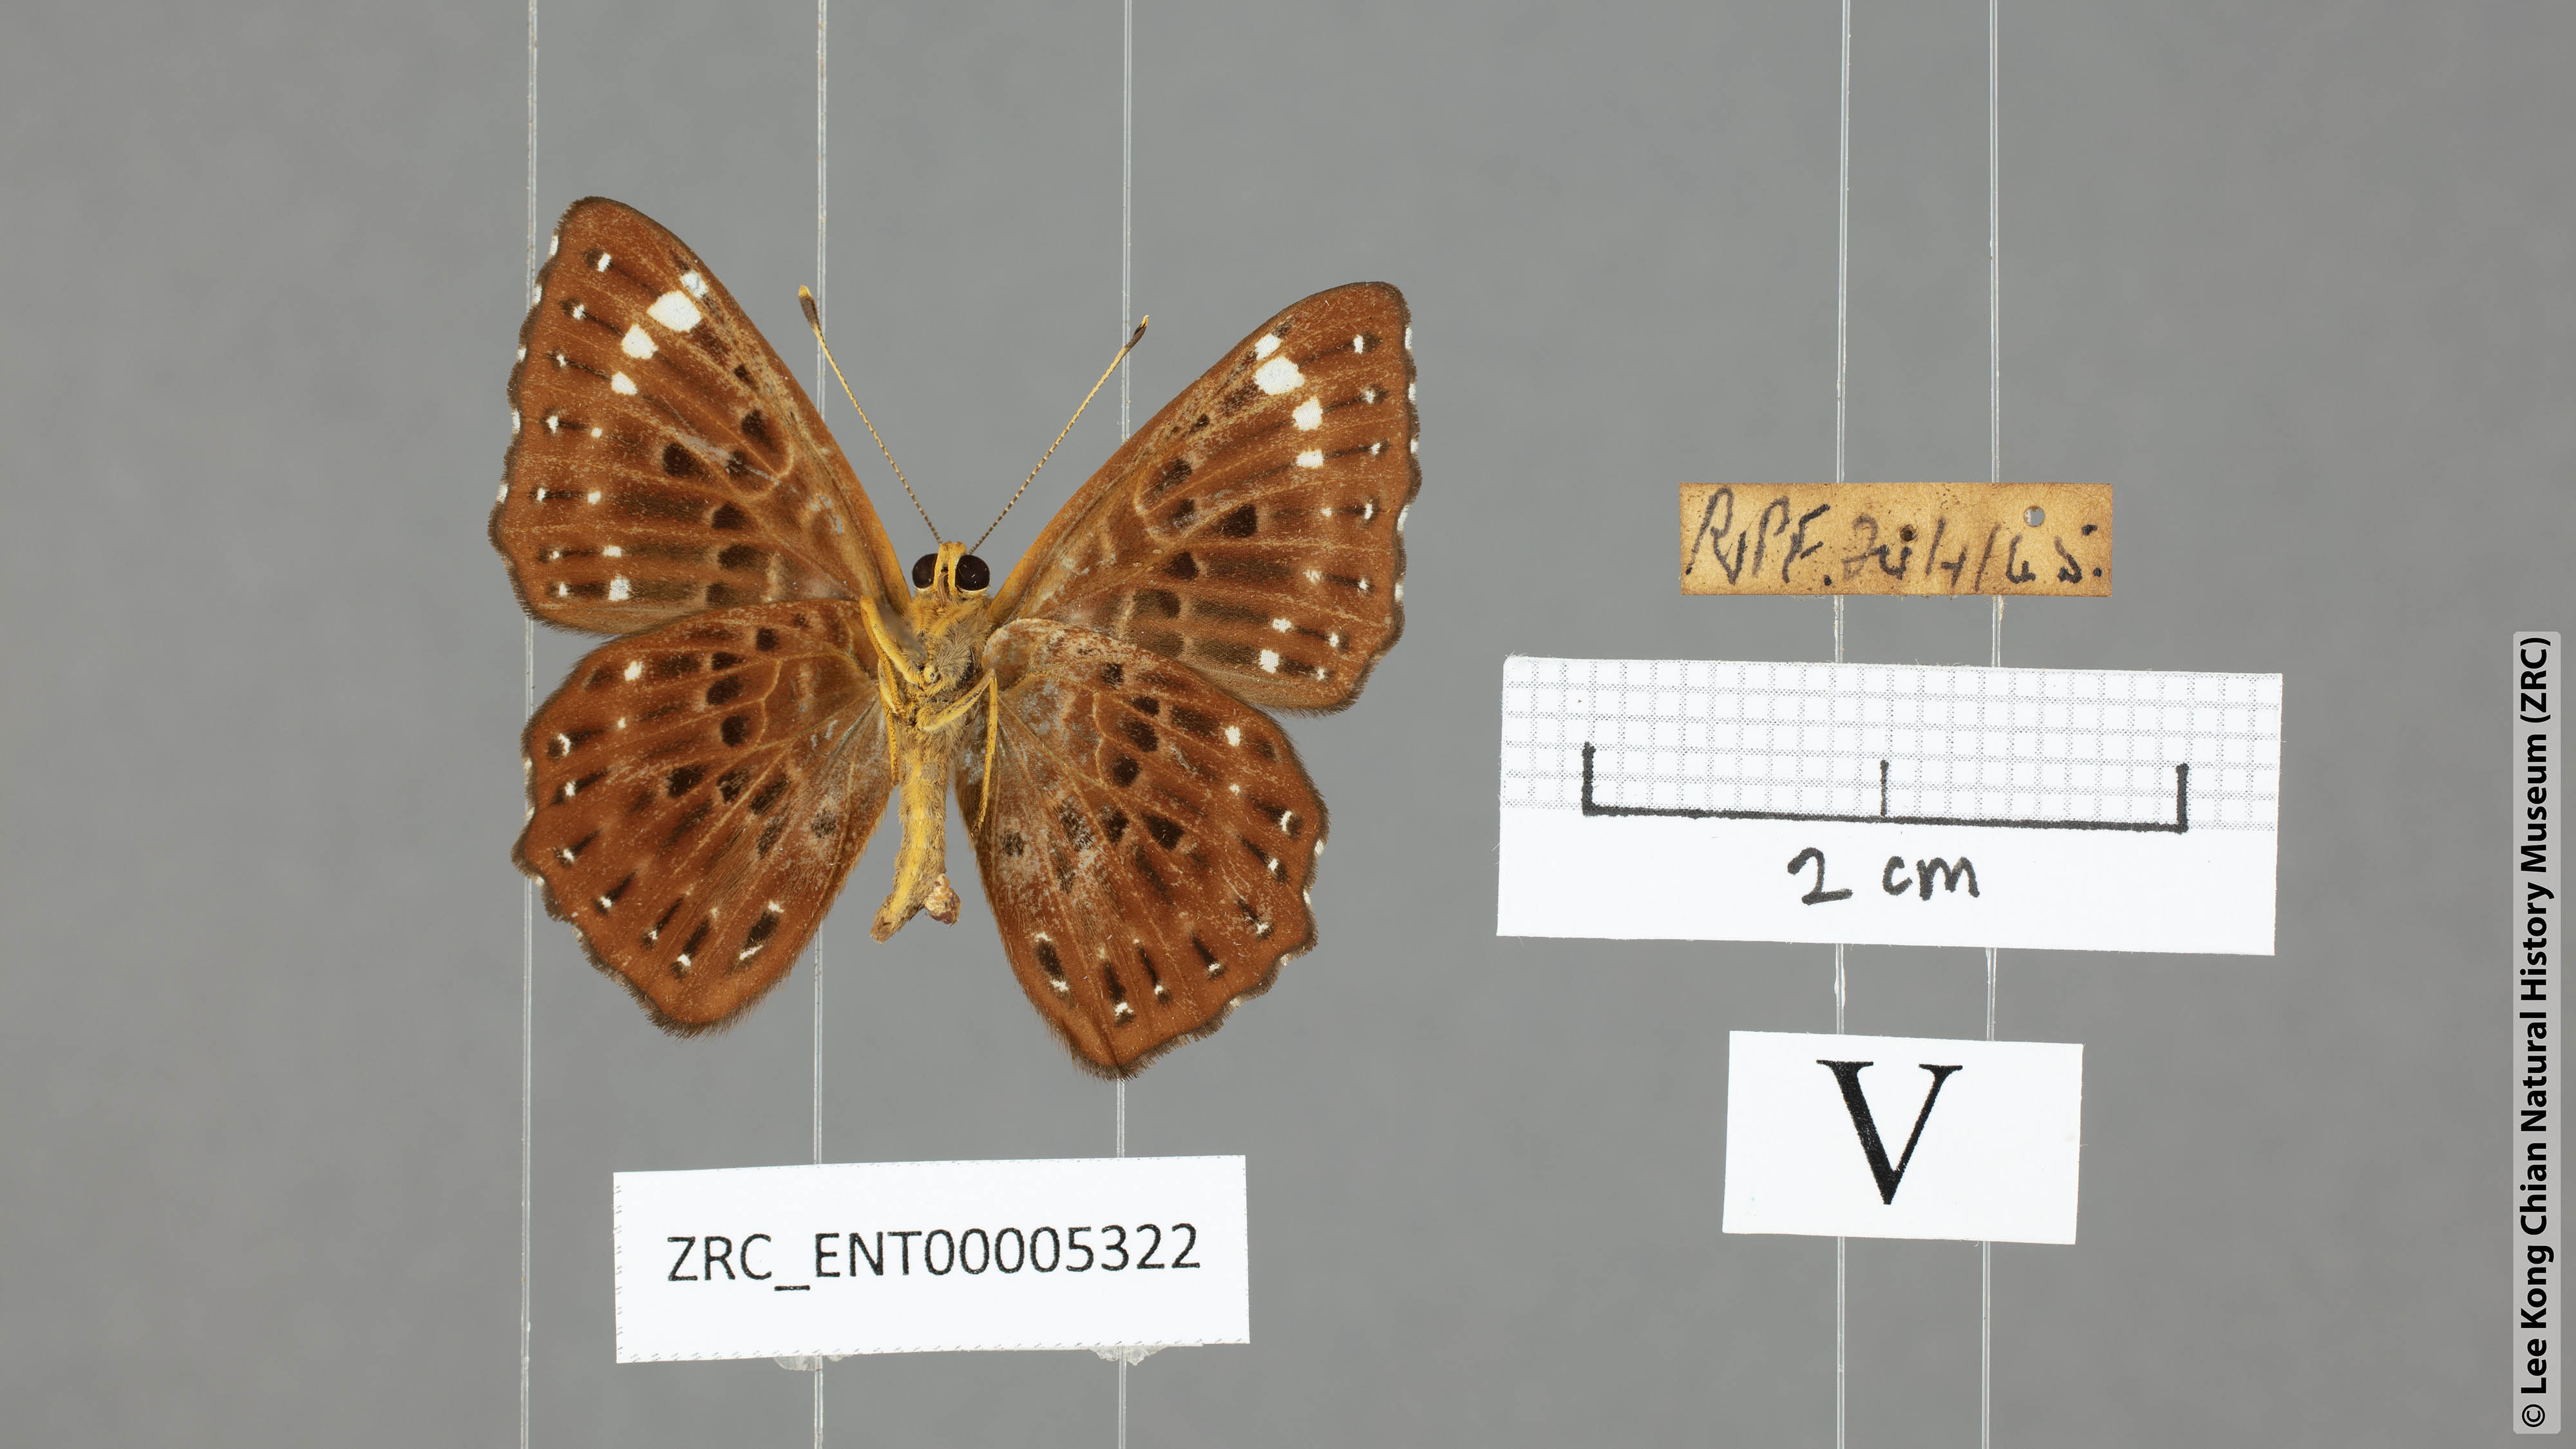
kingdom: Animalia
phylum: Arthropoda
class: Insecta
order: Lepidoptera
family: Riodinidae
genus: Zemeros
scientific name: Zemeros flegyas
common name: Punchinello
